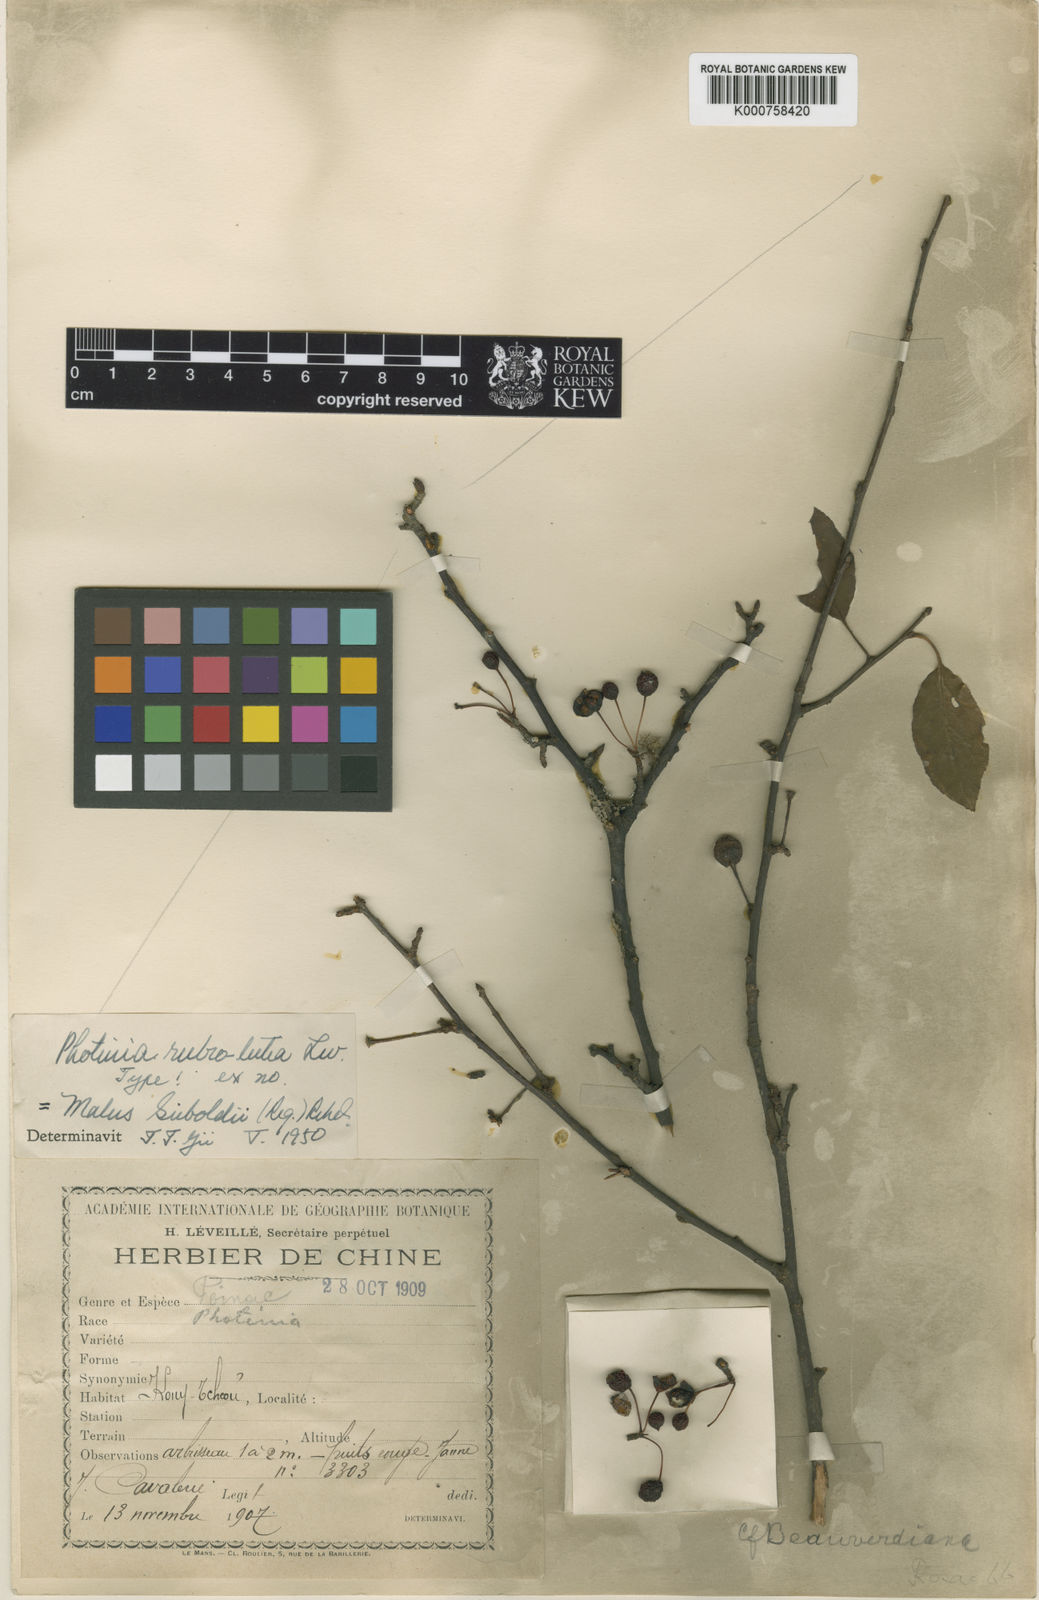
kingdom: Plantae
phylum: Tracheophyta
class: Magnoliopsida
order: Rosales
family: Rosaceae
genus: Malus
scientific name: Malus toringo
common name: Japanese crabapple
